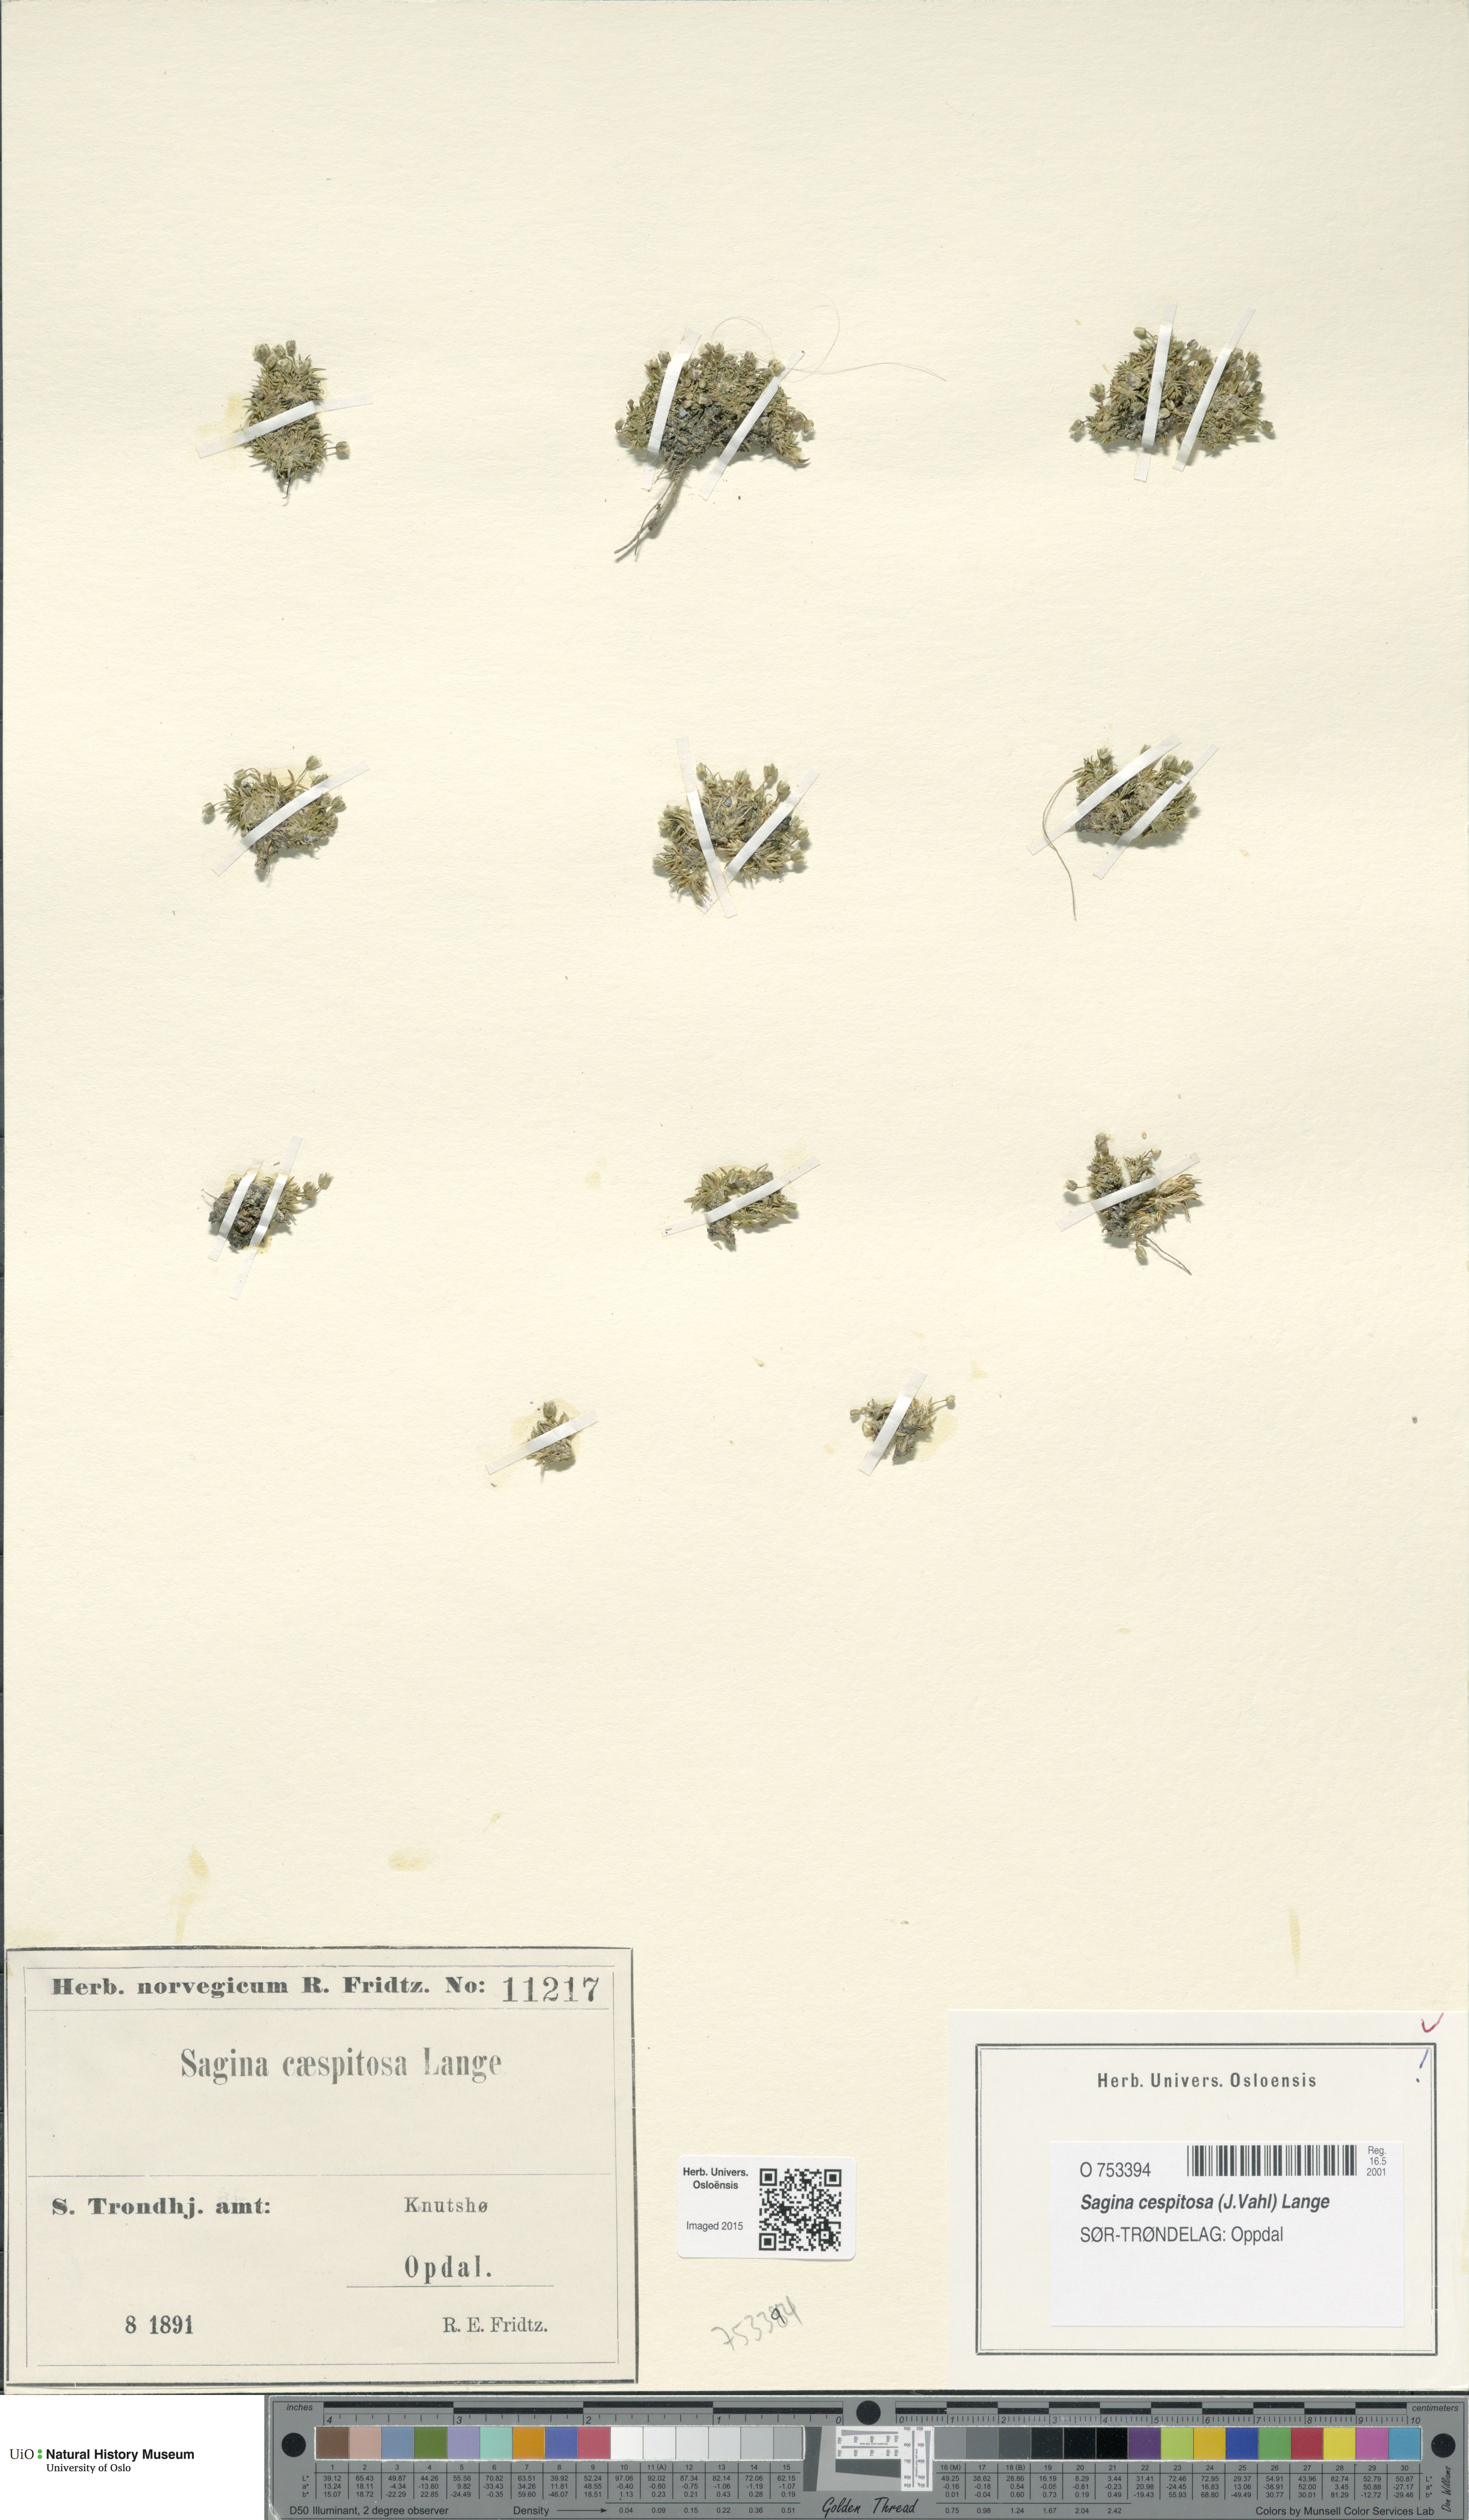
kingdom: Plantae
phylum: Tracheophyta
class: Magnoliopsida
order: Caryophyllales
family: Caryophyllaceae
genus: Sagina
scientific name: Sagina caespitosa
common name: Tufted pearlwort
